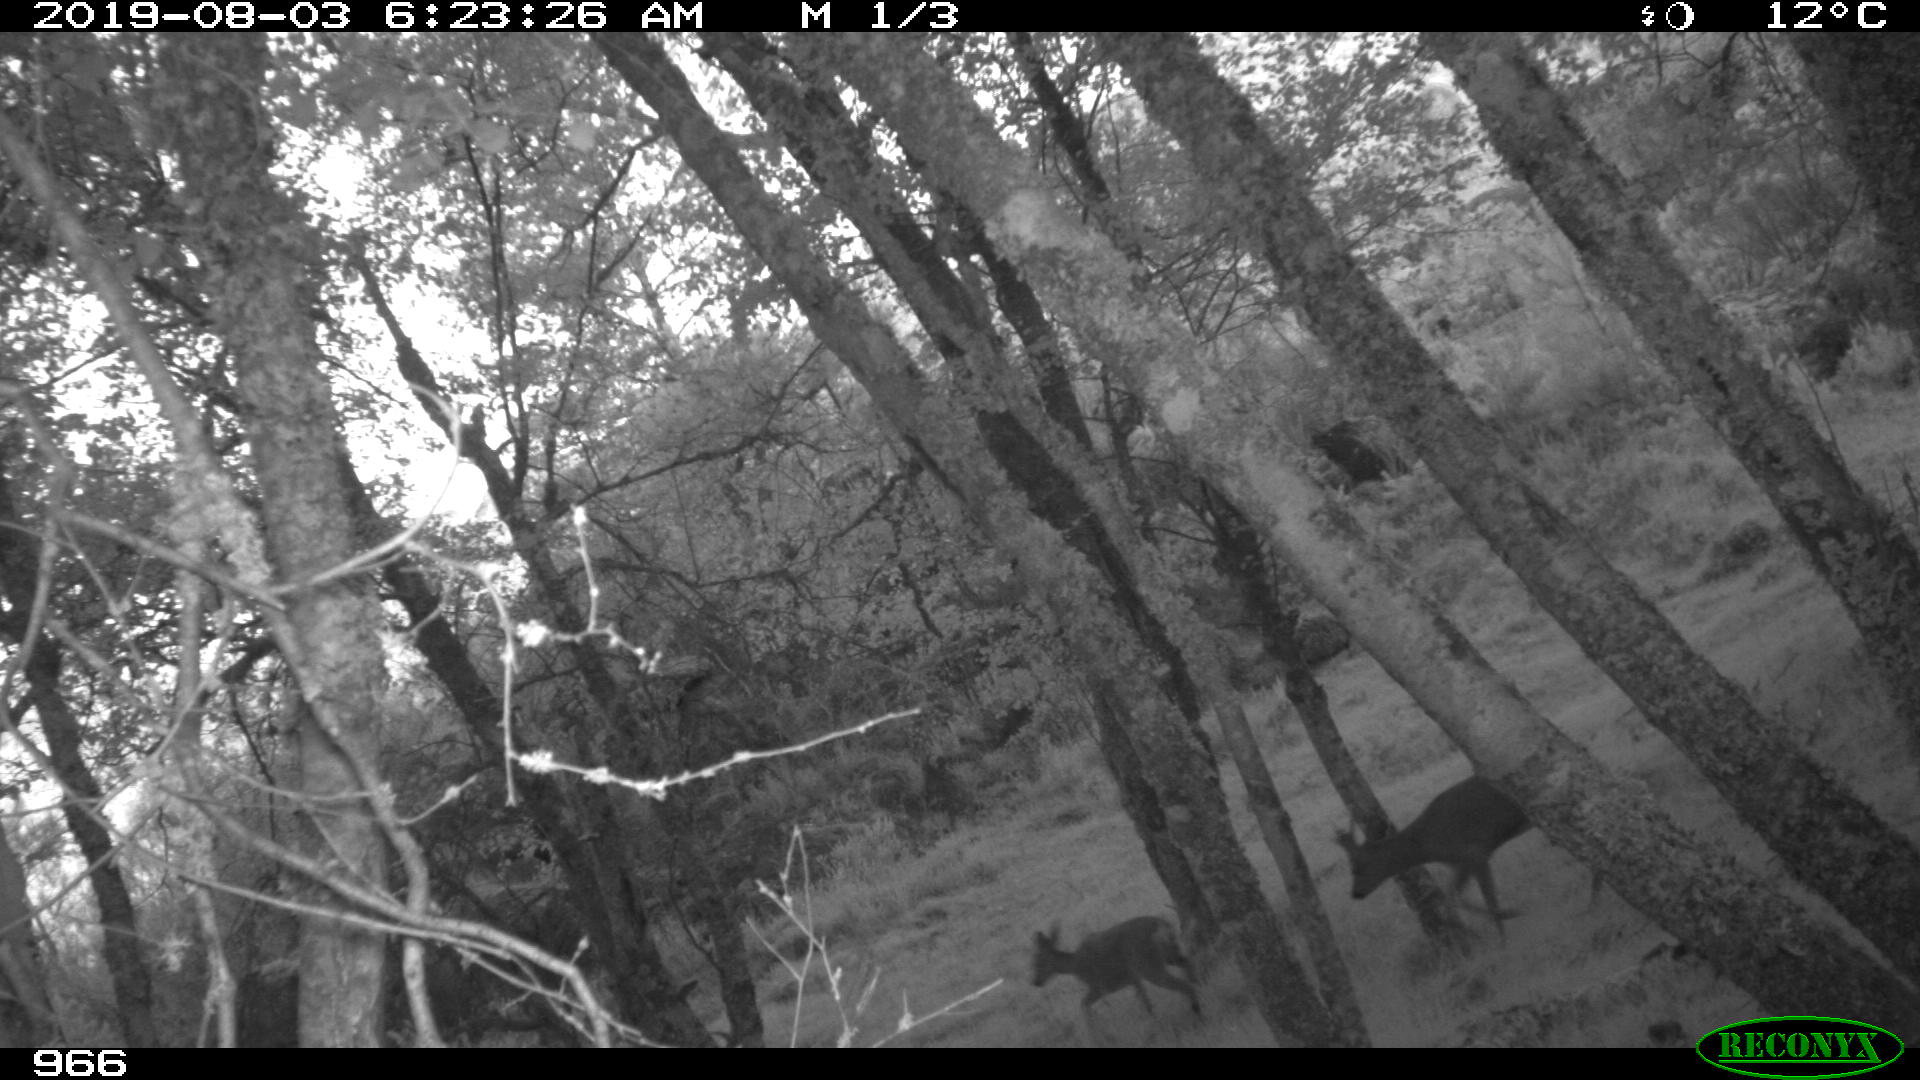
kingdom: Animalia
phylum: Chordata
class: Mammalia
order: Artiodactyla
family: Cervidae
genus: Capreolus
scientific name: Capreolus capreolus
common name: Western roe deer
